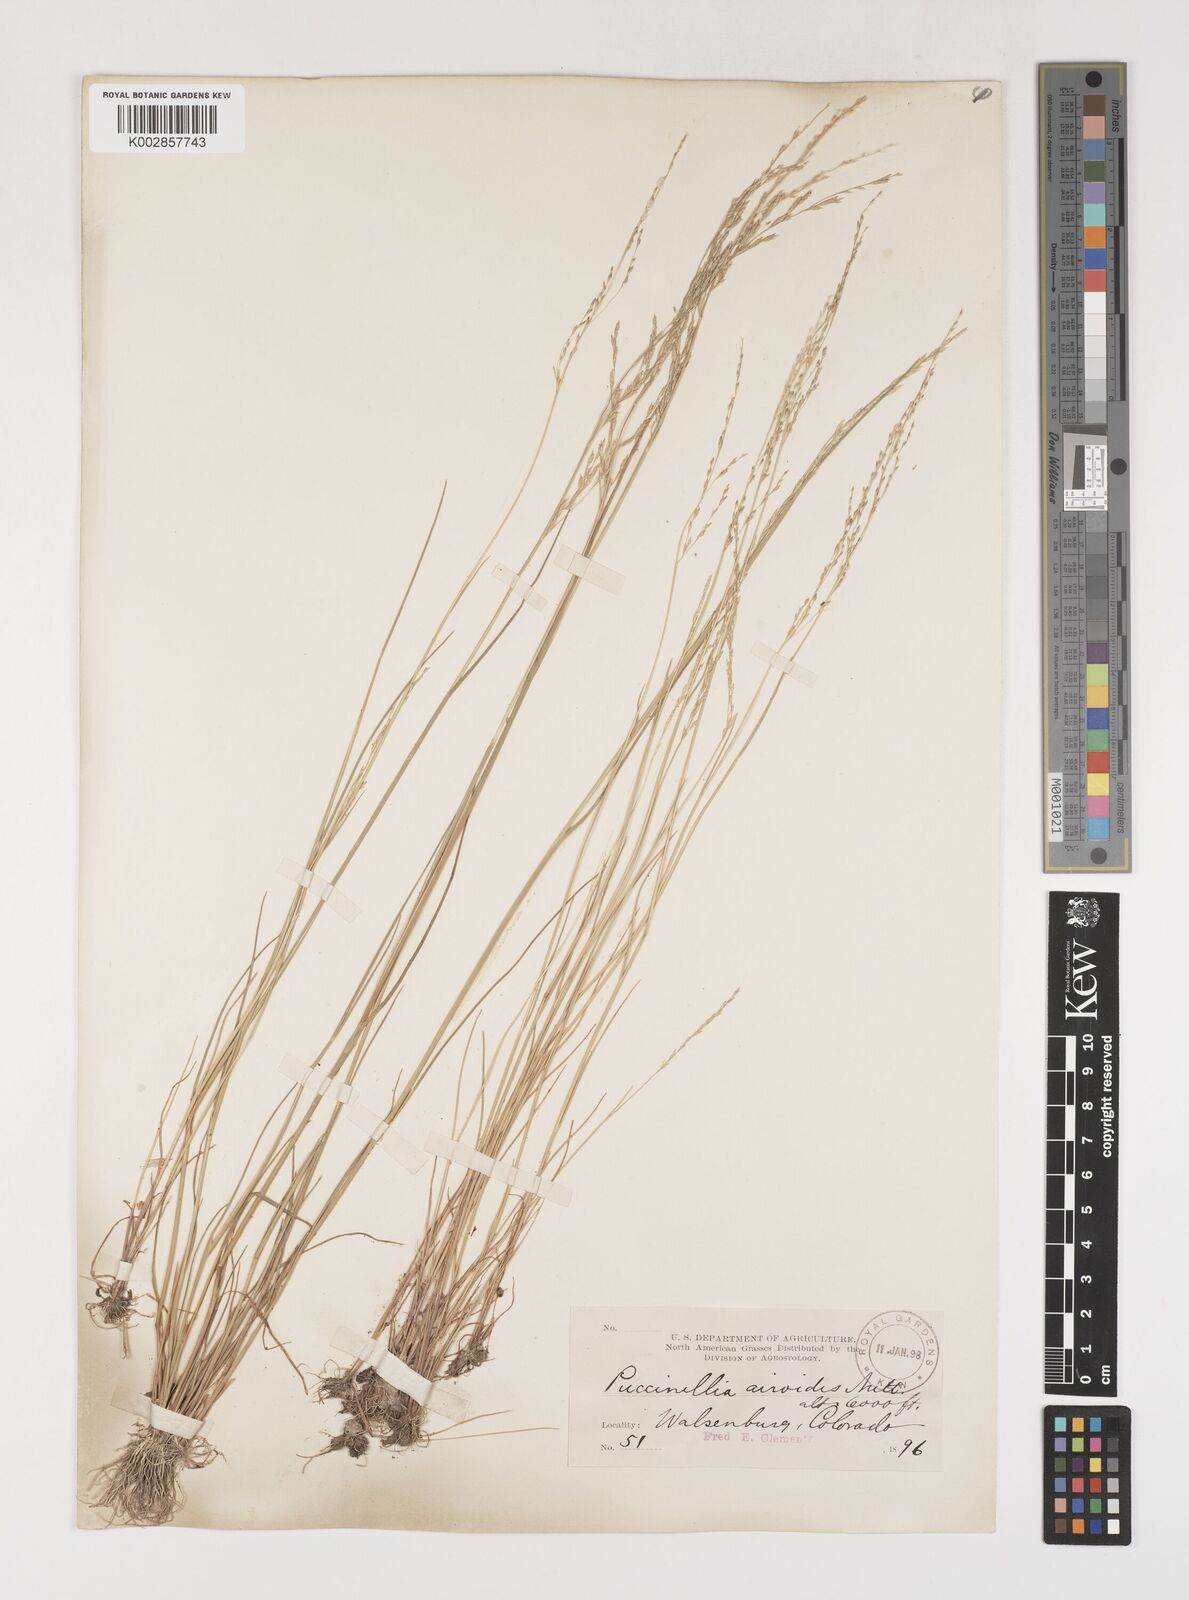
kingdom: Plantae
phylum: Tracheophyta
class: Liliopsida
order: Poales
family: Poaceae
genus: Puccinellia
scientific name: Puccinellia nuttalliana
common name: Nuttall's alkali grass
